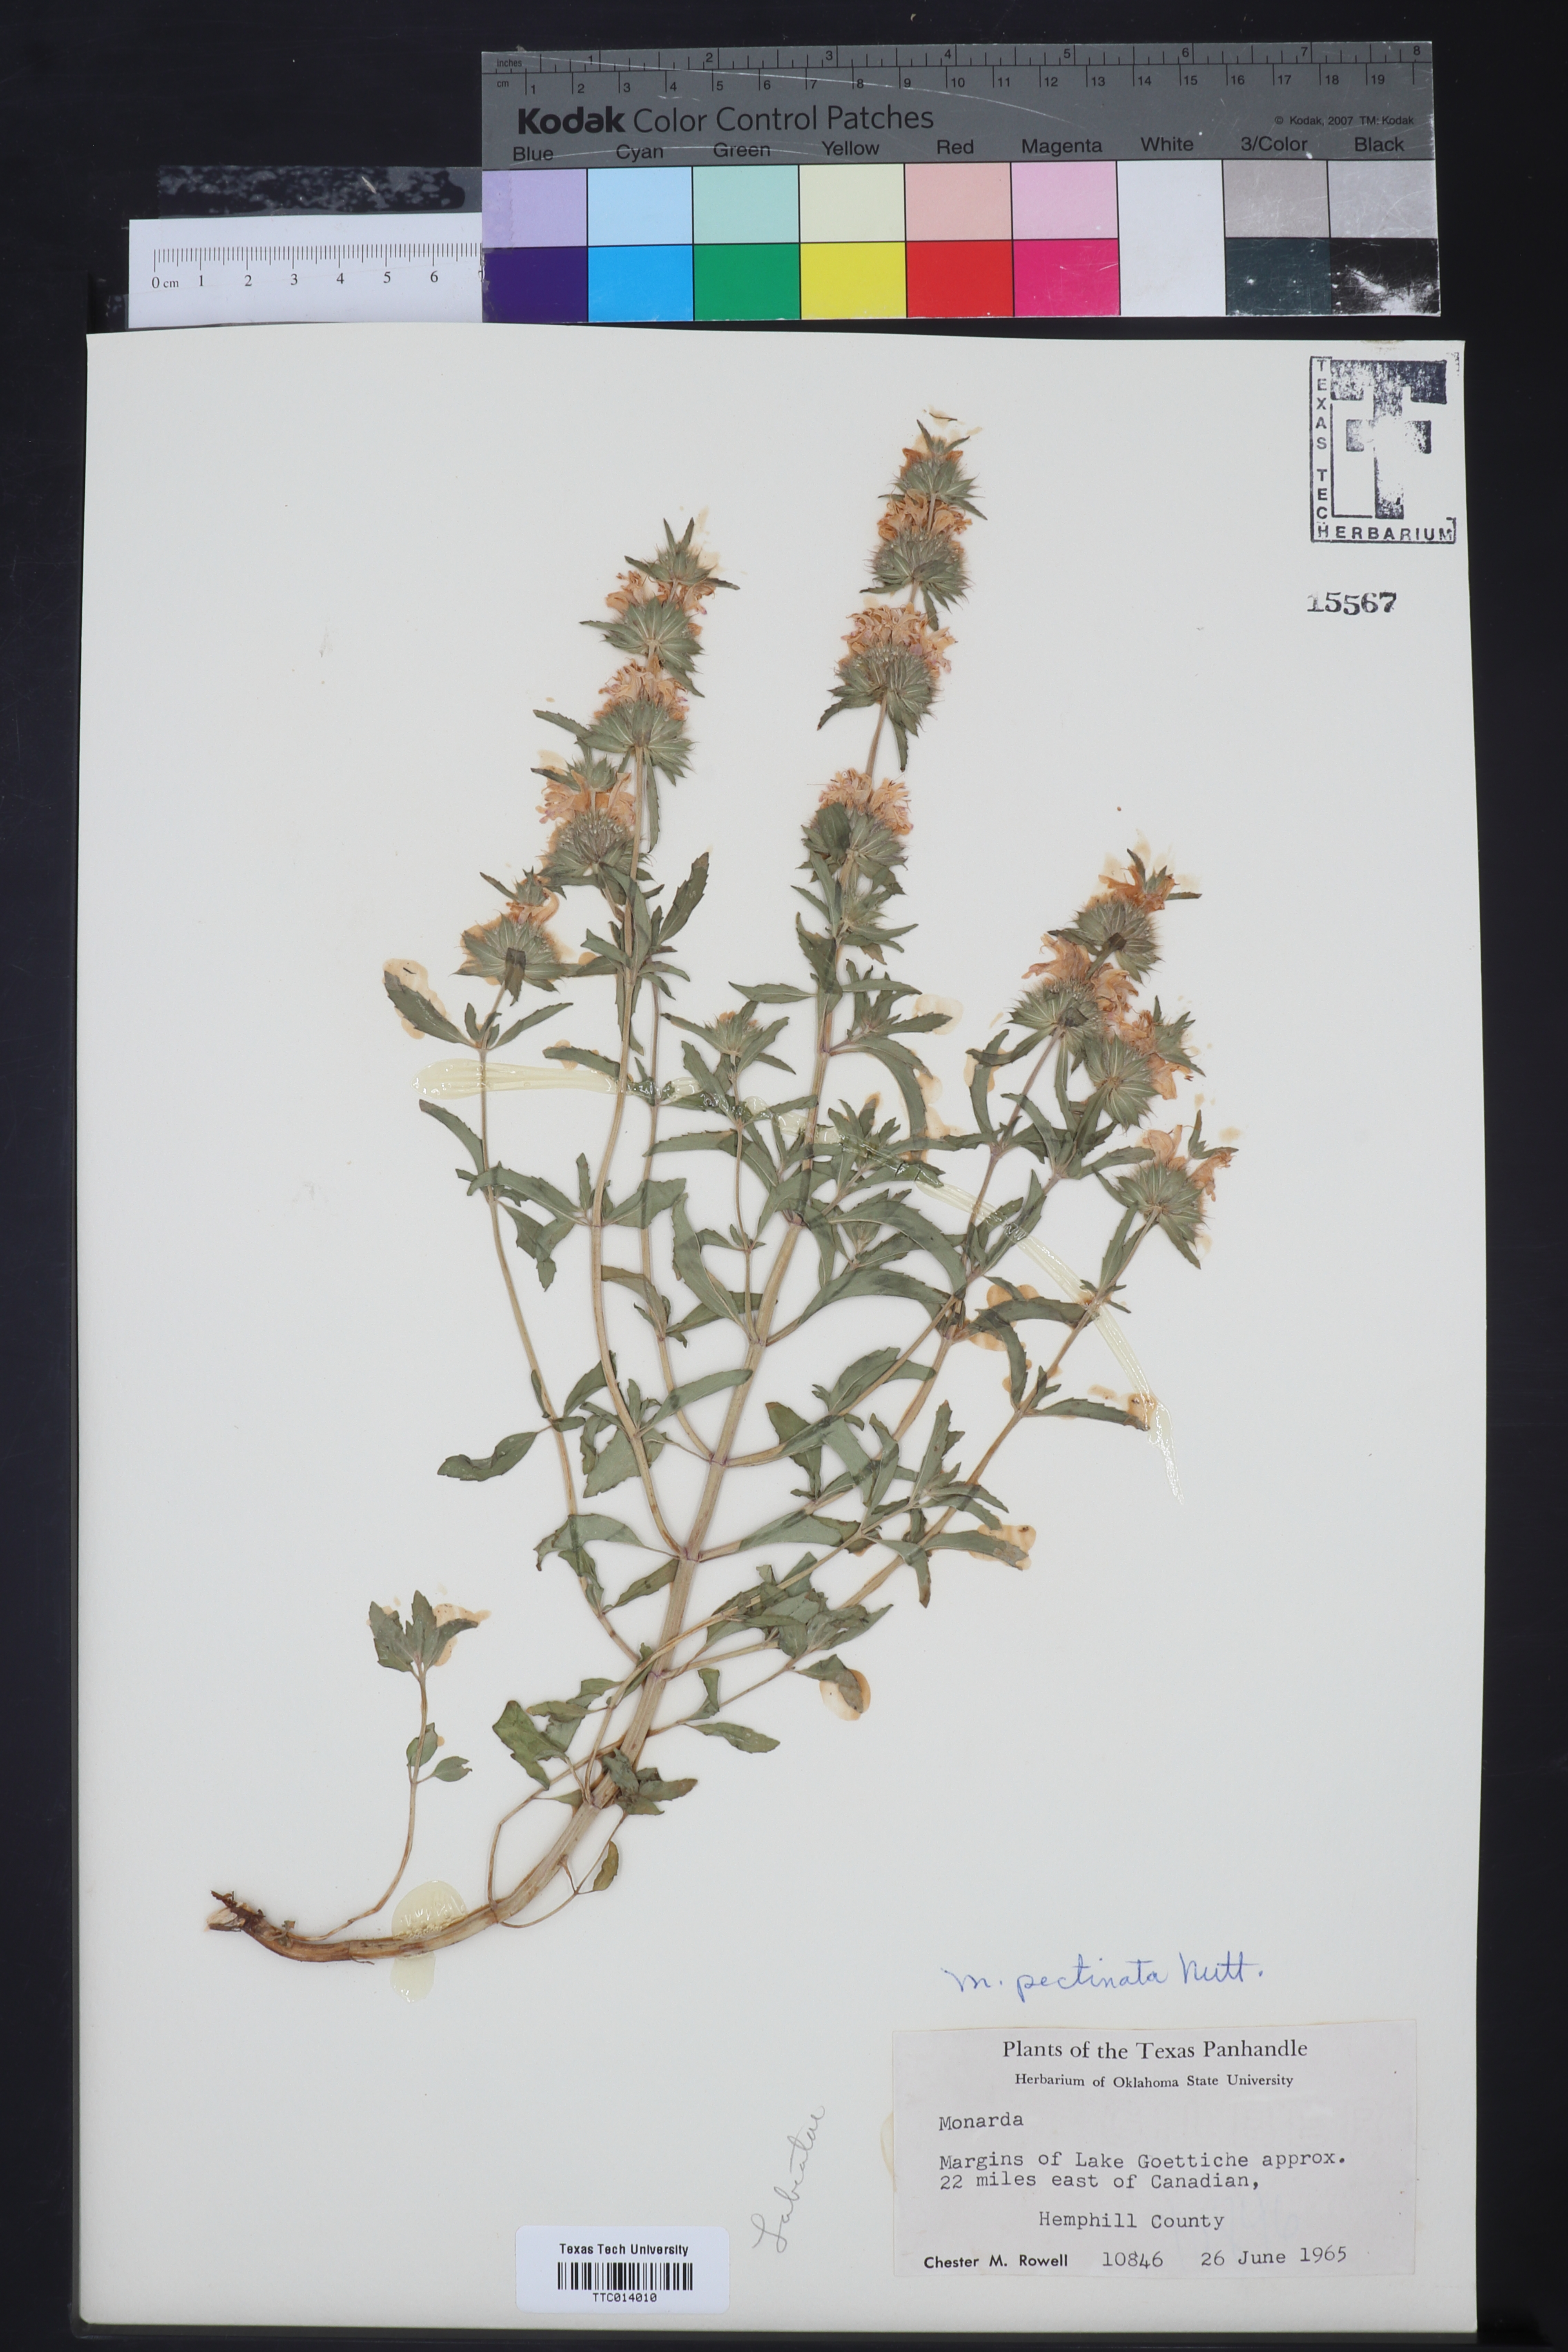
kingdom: Plantae
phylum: Tracheophyta
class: Magnoliopsida
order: Lamiales
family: Lamiaceae
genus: Monarda
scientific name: Monarda pectinata
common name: Plains beebalm
